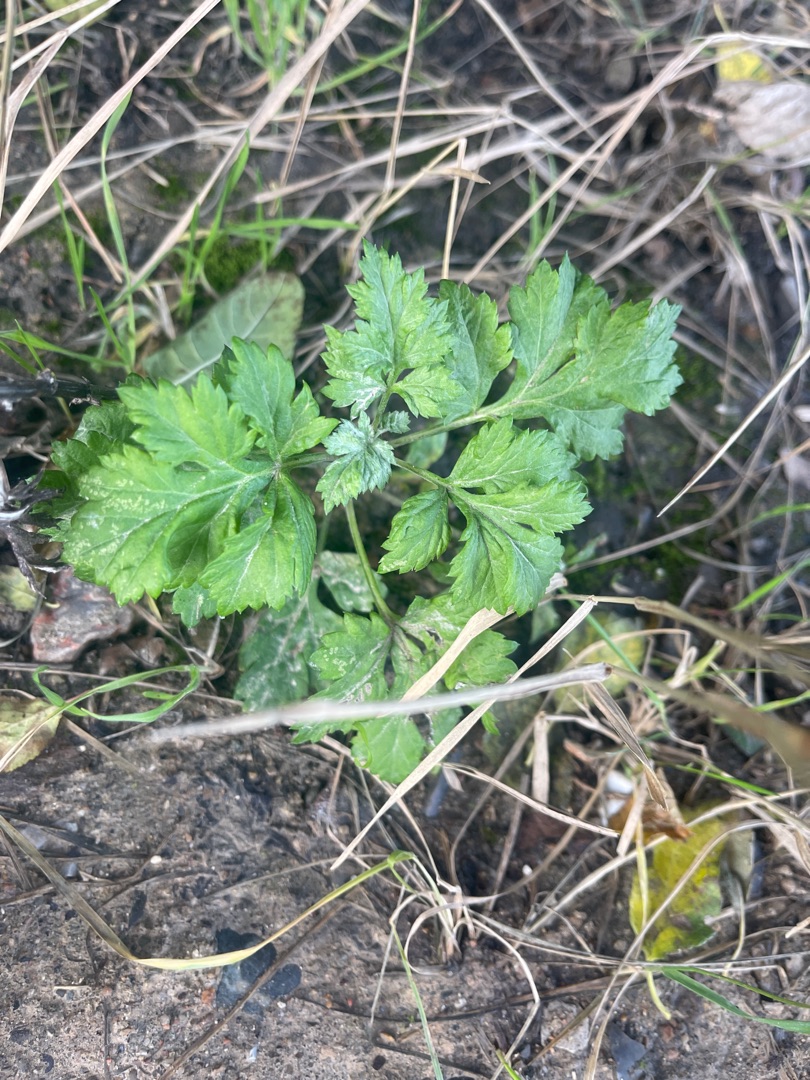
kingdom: Plantae
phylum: Tracheophyta
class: Magnoliopsida
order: Asterales
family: Asteraceae
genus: Artemisia
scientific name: Artemisia vulgaris
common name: Grå-bynke
